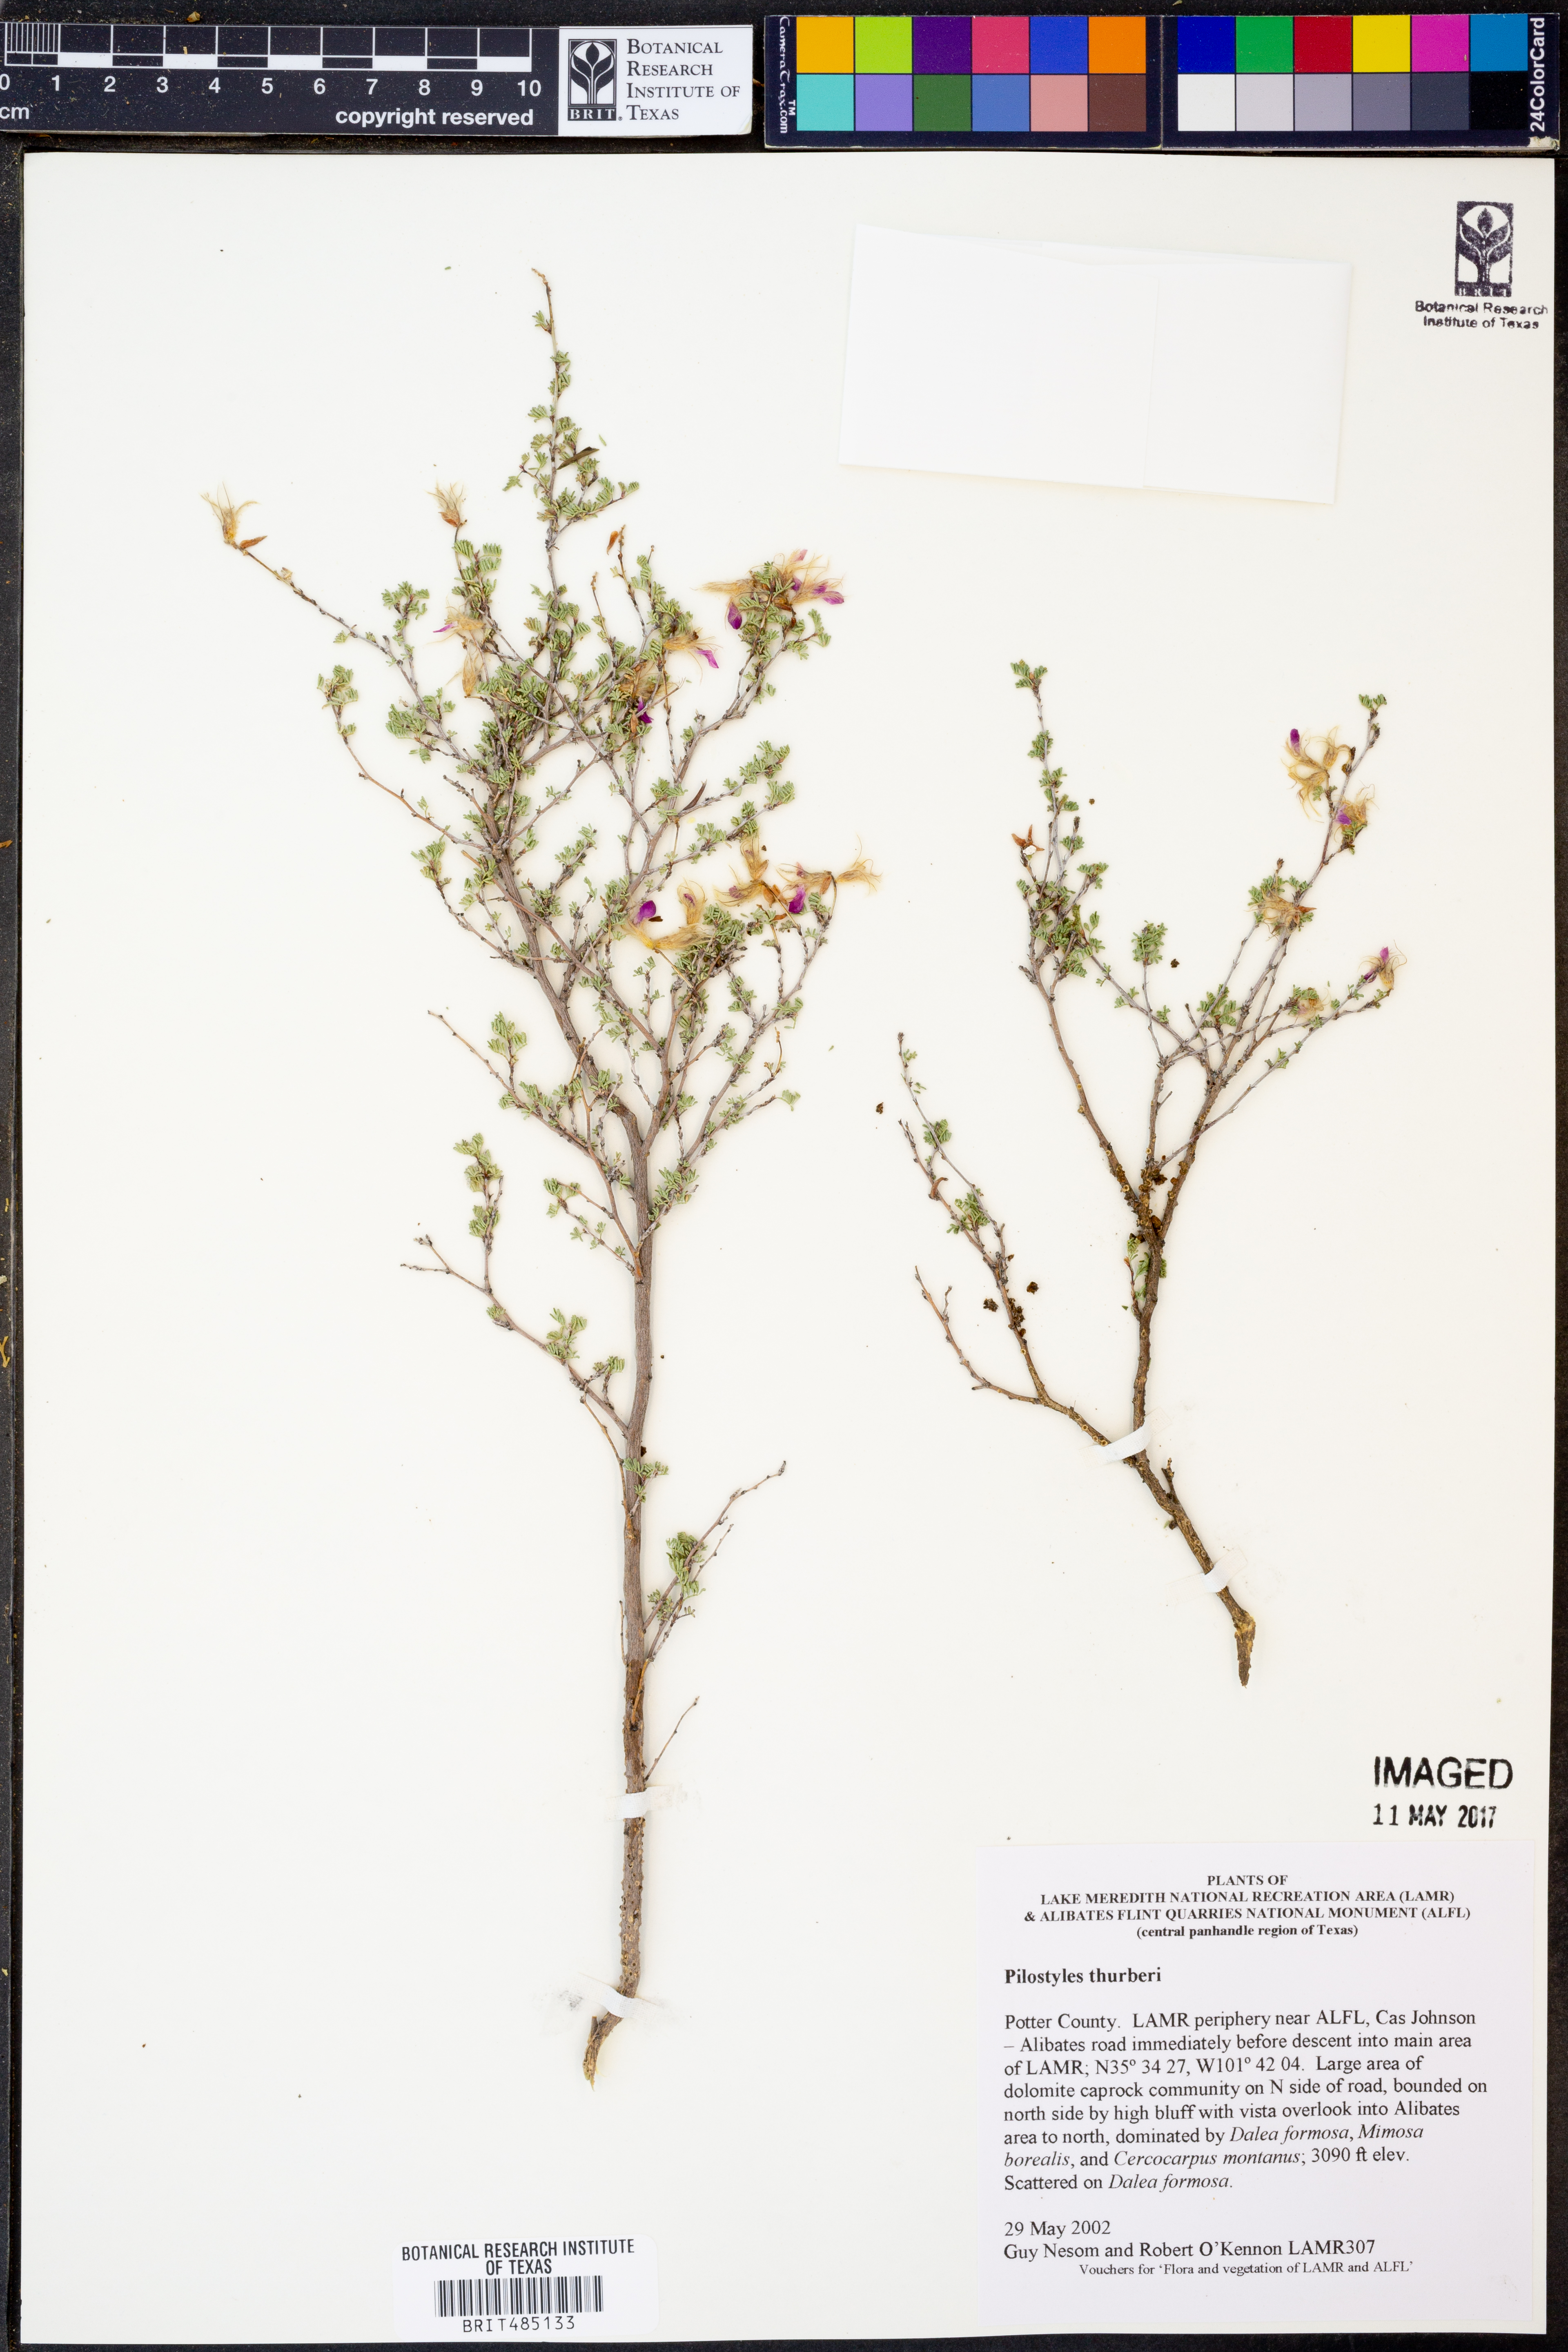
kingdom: Plantae
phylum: Tracheophyta
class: Magnoliopsida
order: Cucurbitales
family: Apodanthaceae
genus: Pilostyles
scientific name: Pilostyles thurberi
